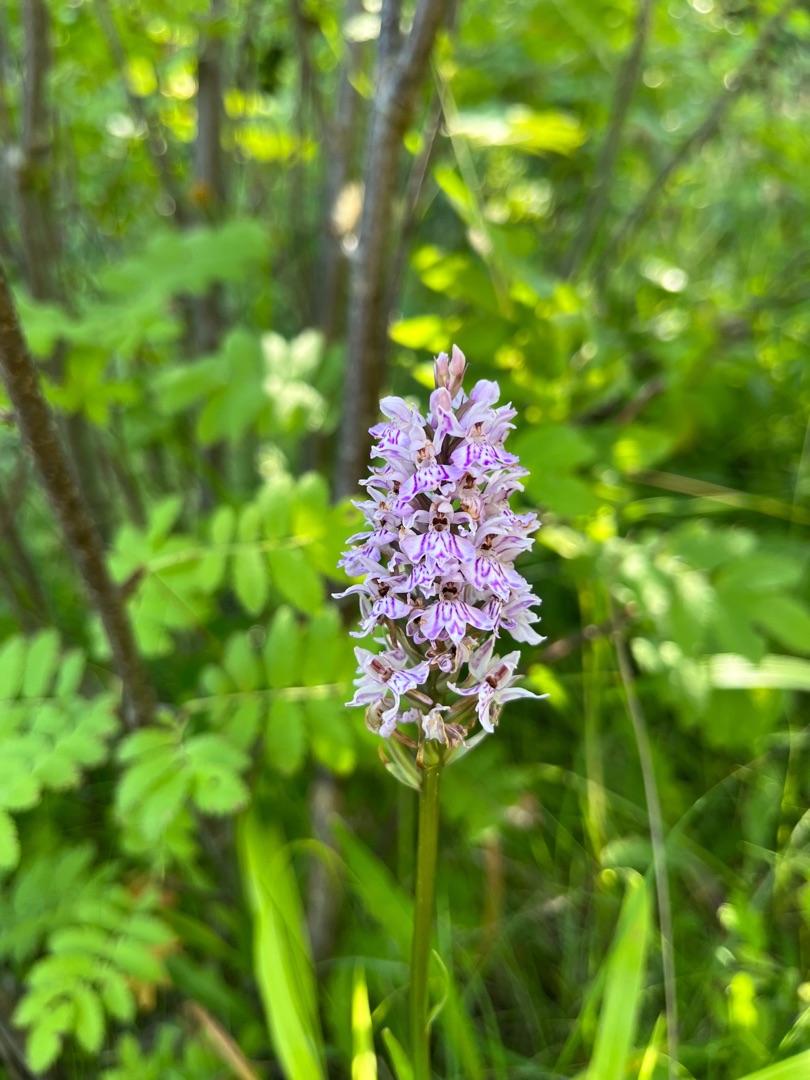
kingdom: Plantae
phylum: Tracheophyta
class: Liliopsida
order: Asparagales
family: Orchidaceae
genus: Dactylorhiza
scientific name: Dactylorhiza maculata
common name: Skov-gøgeurt
